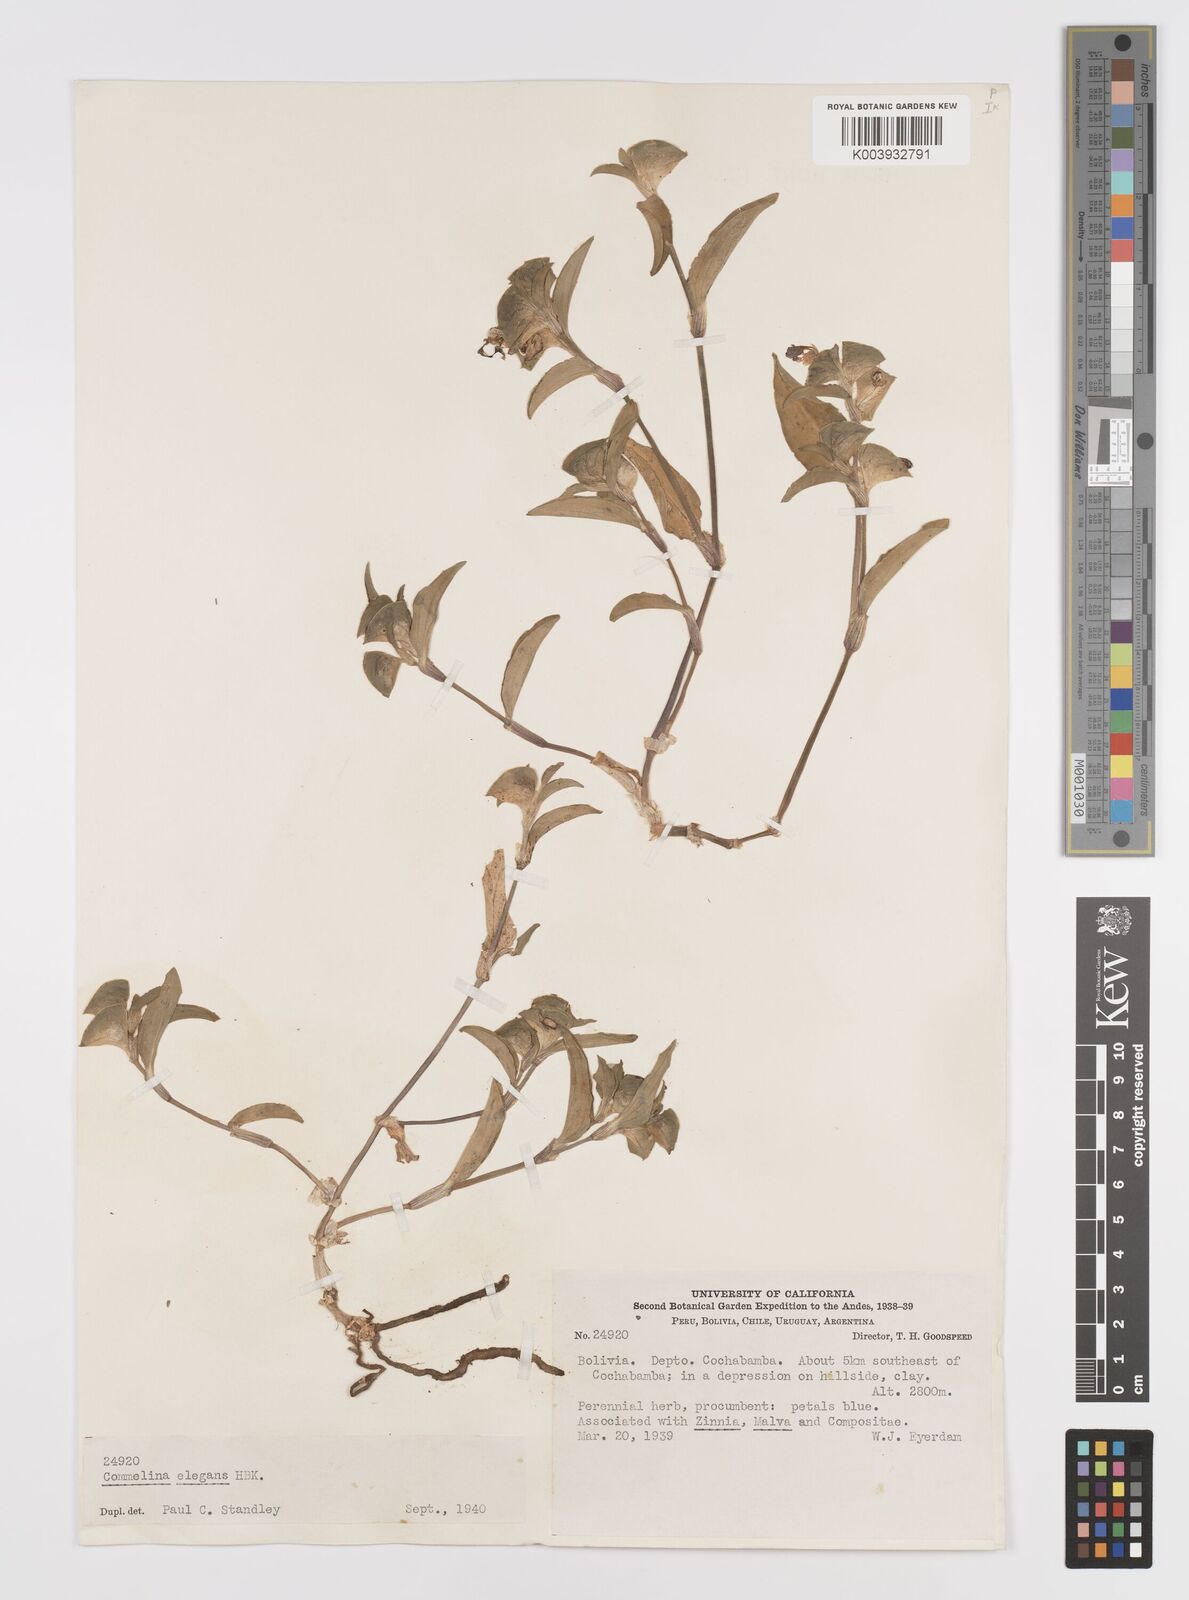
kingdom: Plantae
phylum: Tracheophyta
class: Liliopsida
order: Commelinales
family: Commelinaceae
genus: Commelina
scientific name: Commelina virginica
